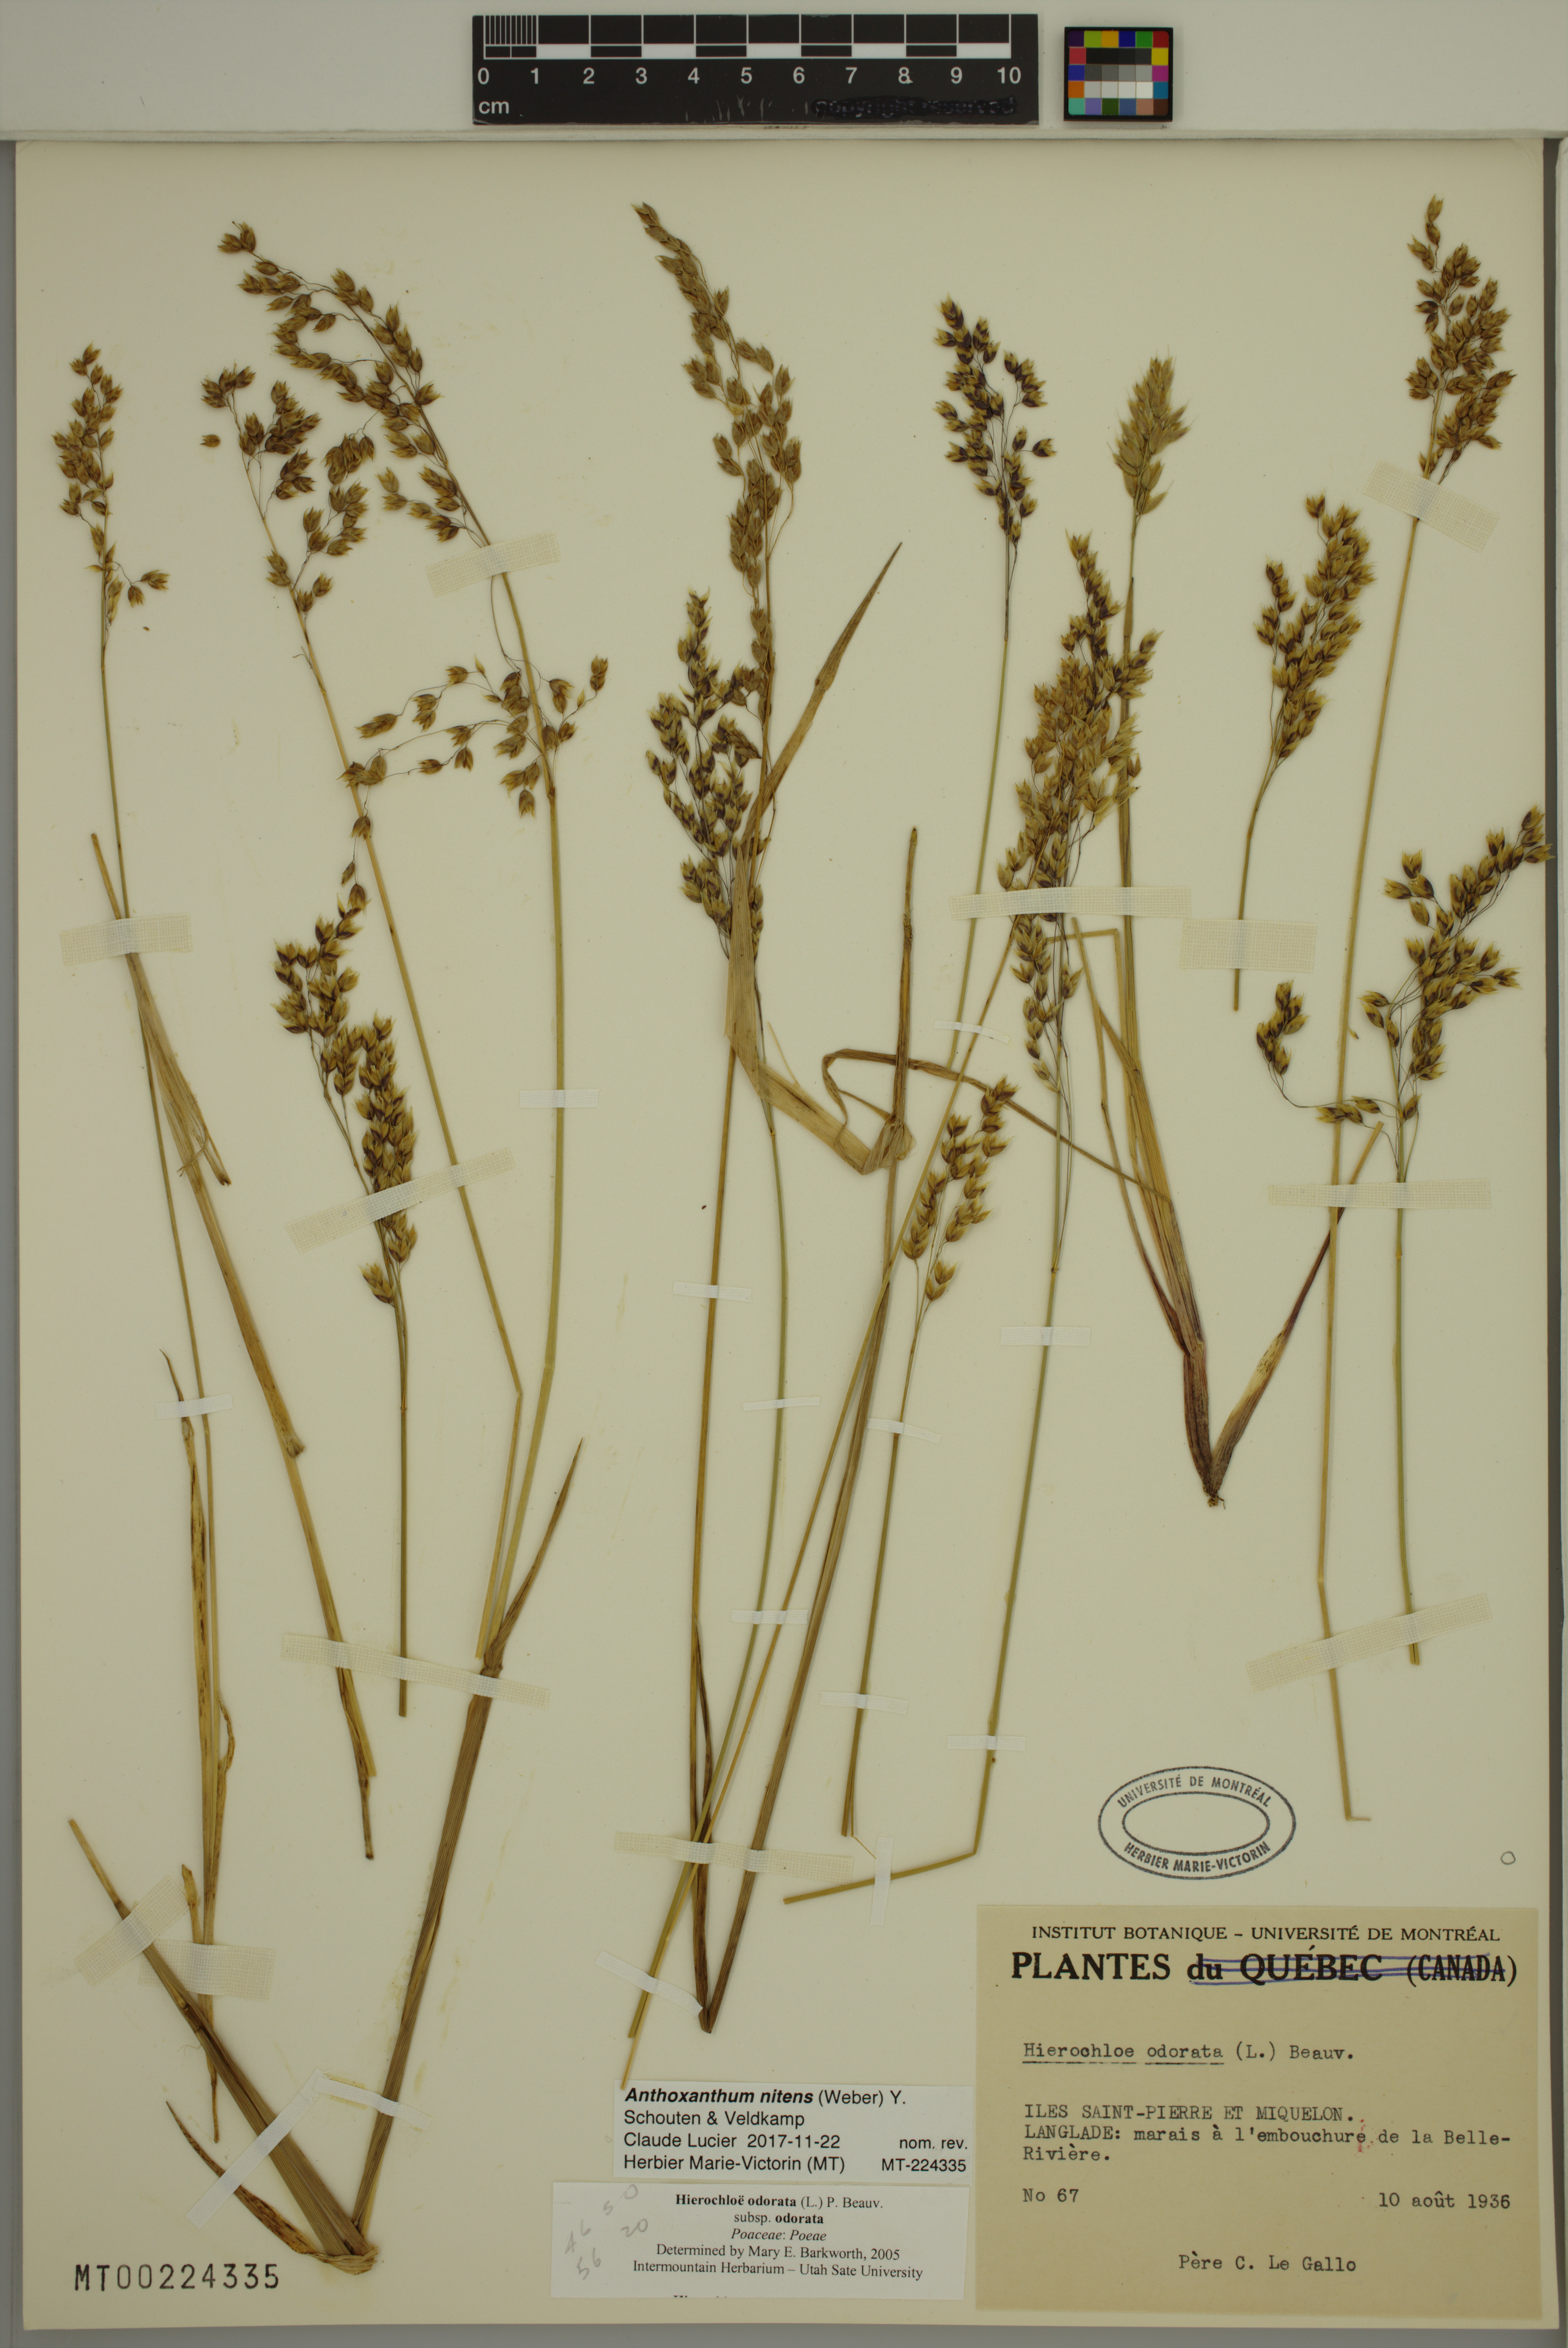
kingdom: Plantae
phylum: Tracheophyta
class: Liliopsida
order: Poales
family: Poaceae
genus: Anthoxanthum
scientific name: Anthoxanthum nitens
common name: Holy grass
